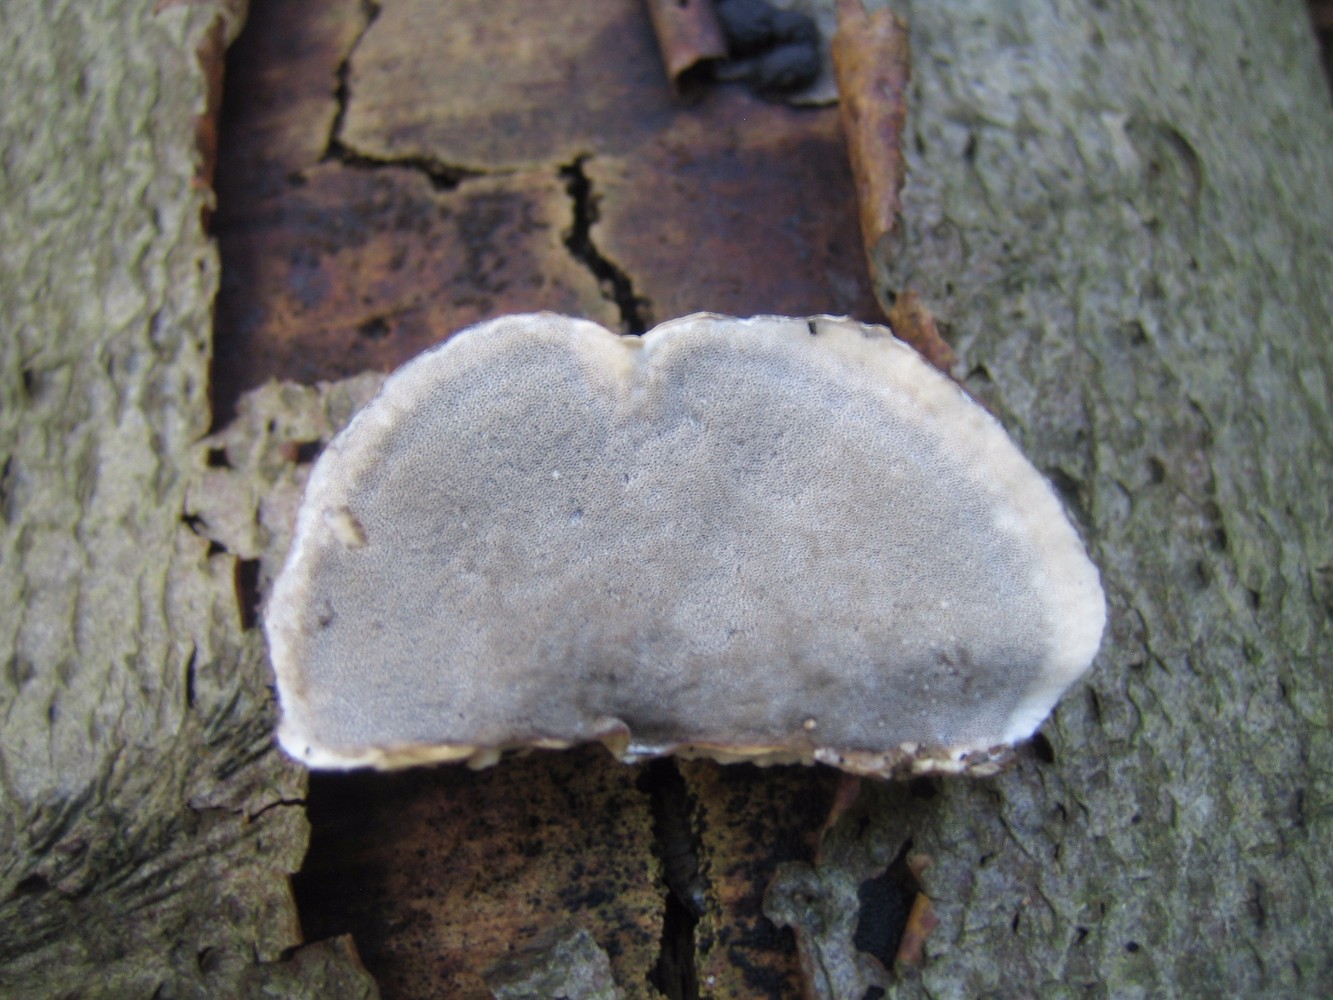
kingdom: Fungi
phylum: Basidiomycota
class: Agaricomycetes
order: Polyporales
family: Phanerochaetaceae
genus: Bjerkandera
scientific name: Bjerkandera adusta
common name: sveden sodporesvamp
